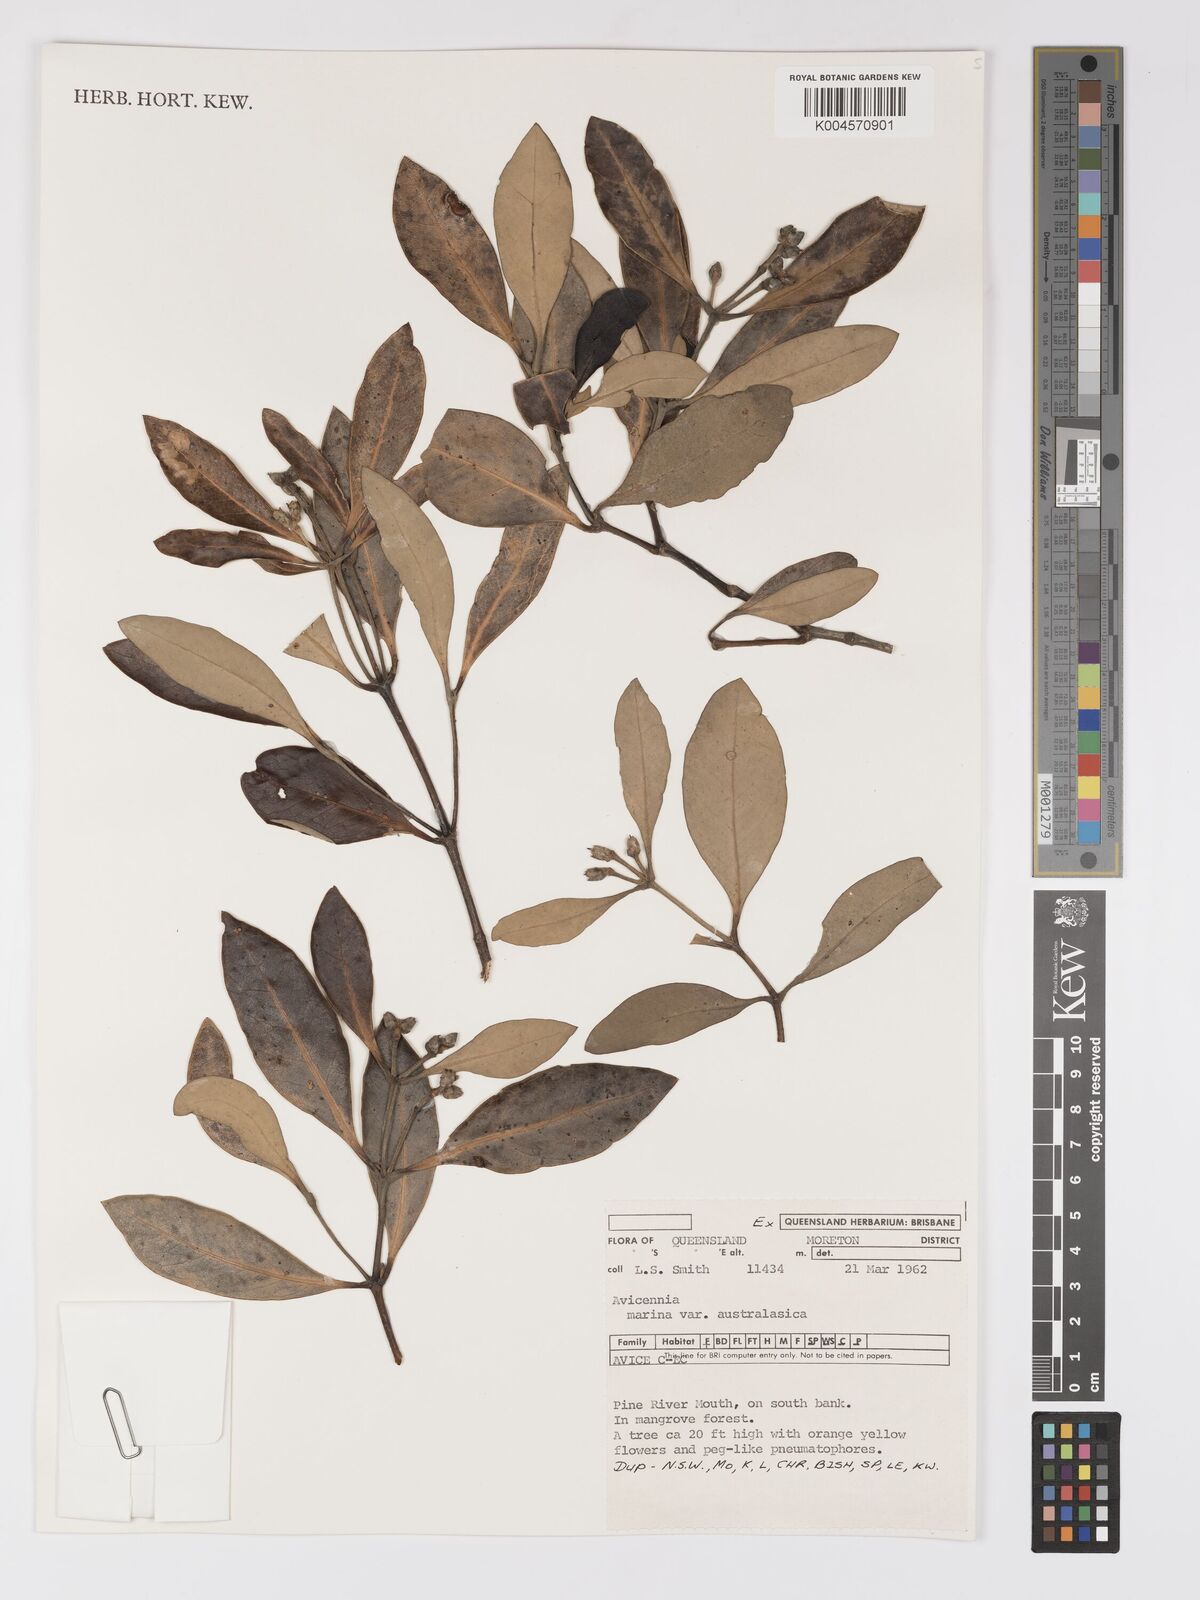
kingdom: Plantae
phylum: Tracheophyta
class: Magnoliopsida
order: Lamiales
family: Acanthaceae
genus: Avicennia
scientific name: Avicennia marina
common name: Gray mangrove
